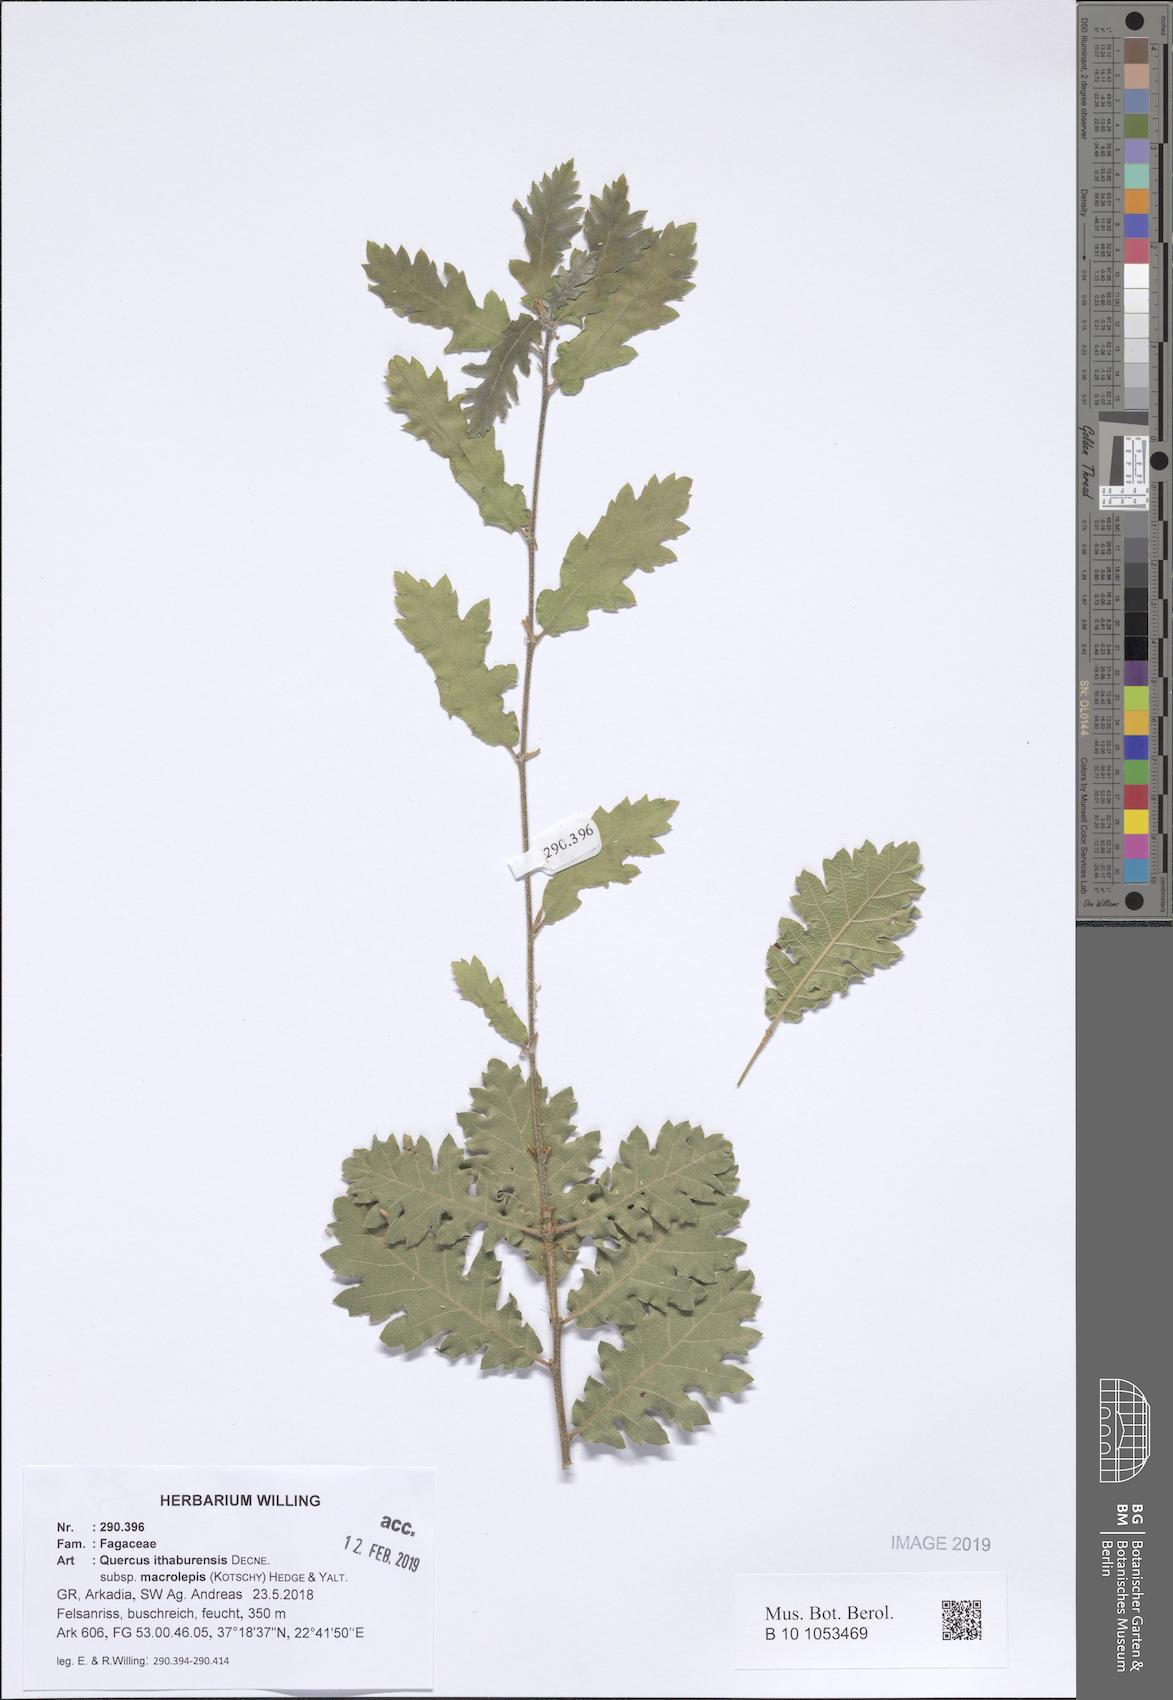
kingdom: Plantae
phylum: Tracheophyta
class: Magnoliopsida
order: Fagales
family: Fagaceae
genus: Quercus
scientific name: Quercus ithaburensis
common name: Tabor oak
